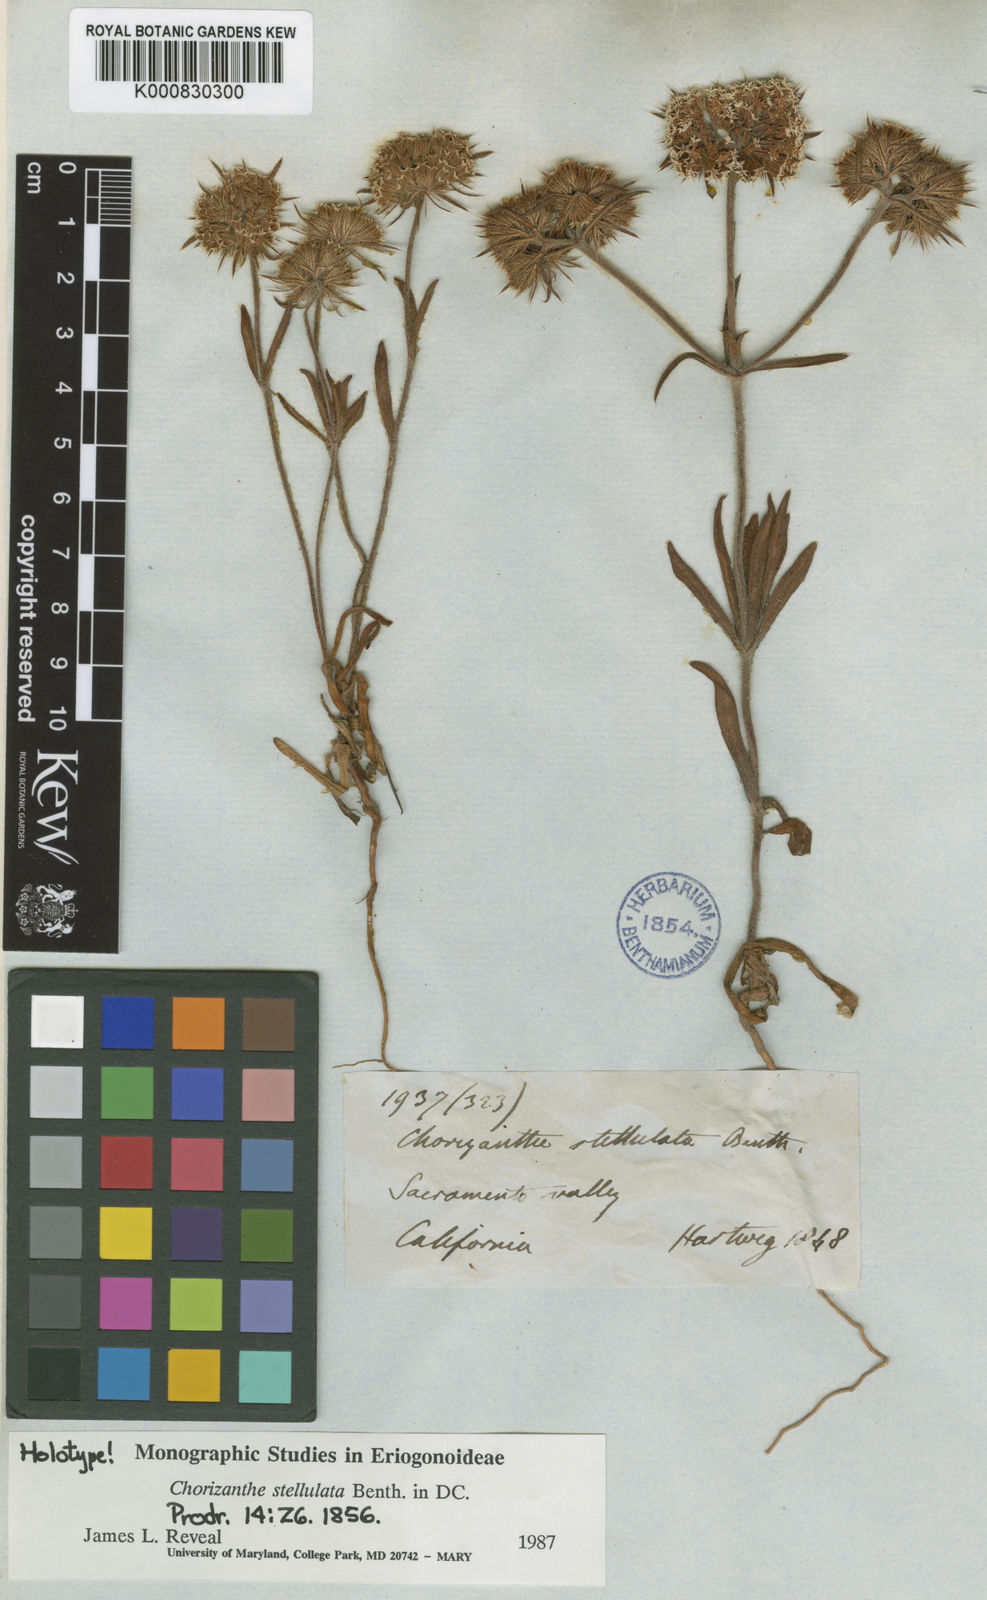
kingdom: Plantae
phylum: Tracheophyta
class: Magnoliopsida
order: Caryophyllales
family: Polygonaceae
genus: Chorizanthe
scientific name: Chorizanthe stellulata
